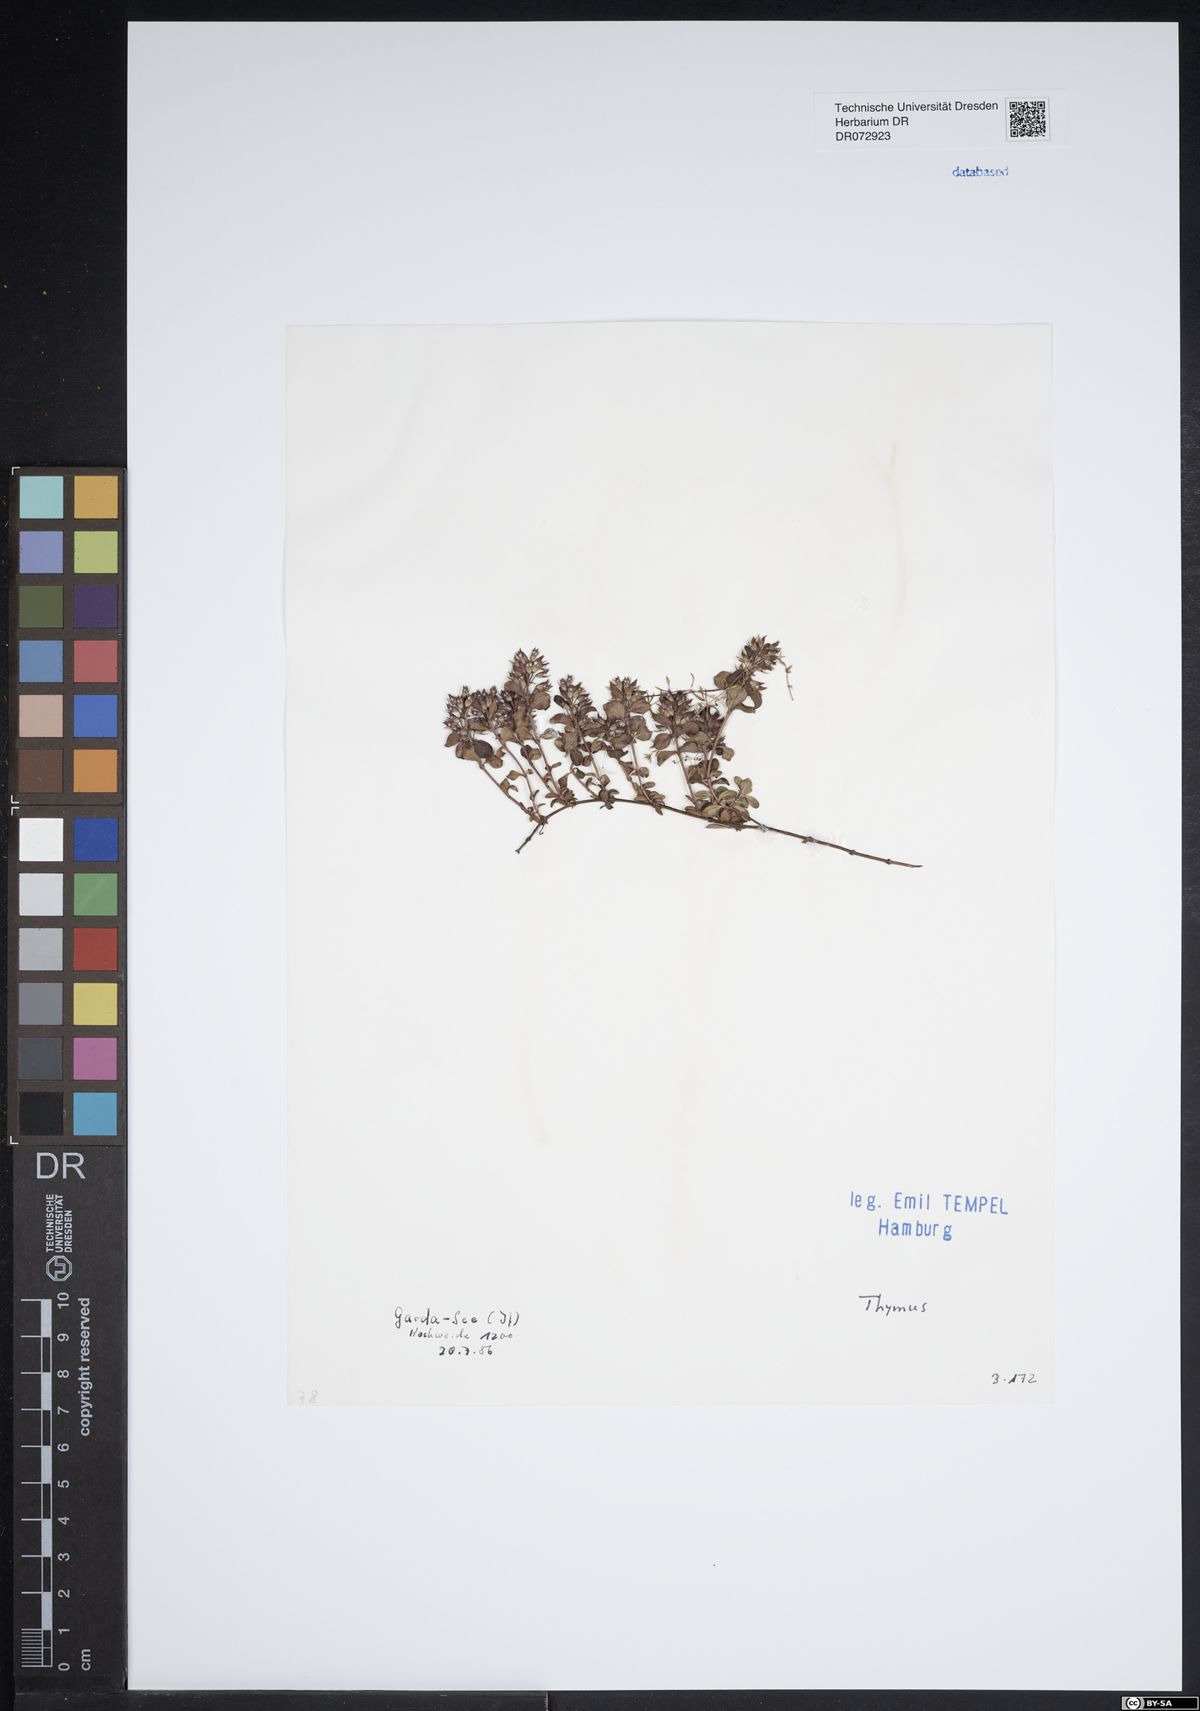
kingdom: Plantae
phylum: Tracheophyta
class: Magnoliopsida
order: Lamiales
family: Lamiaceae
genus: Thymus
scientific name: Thymus
